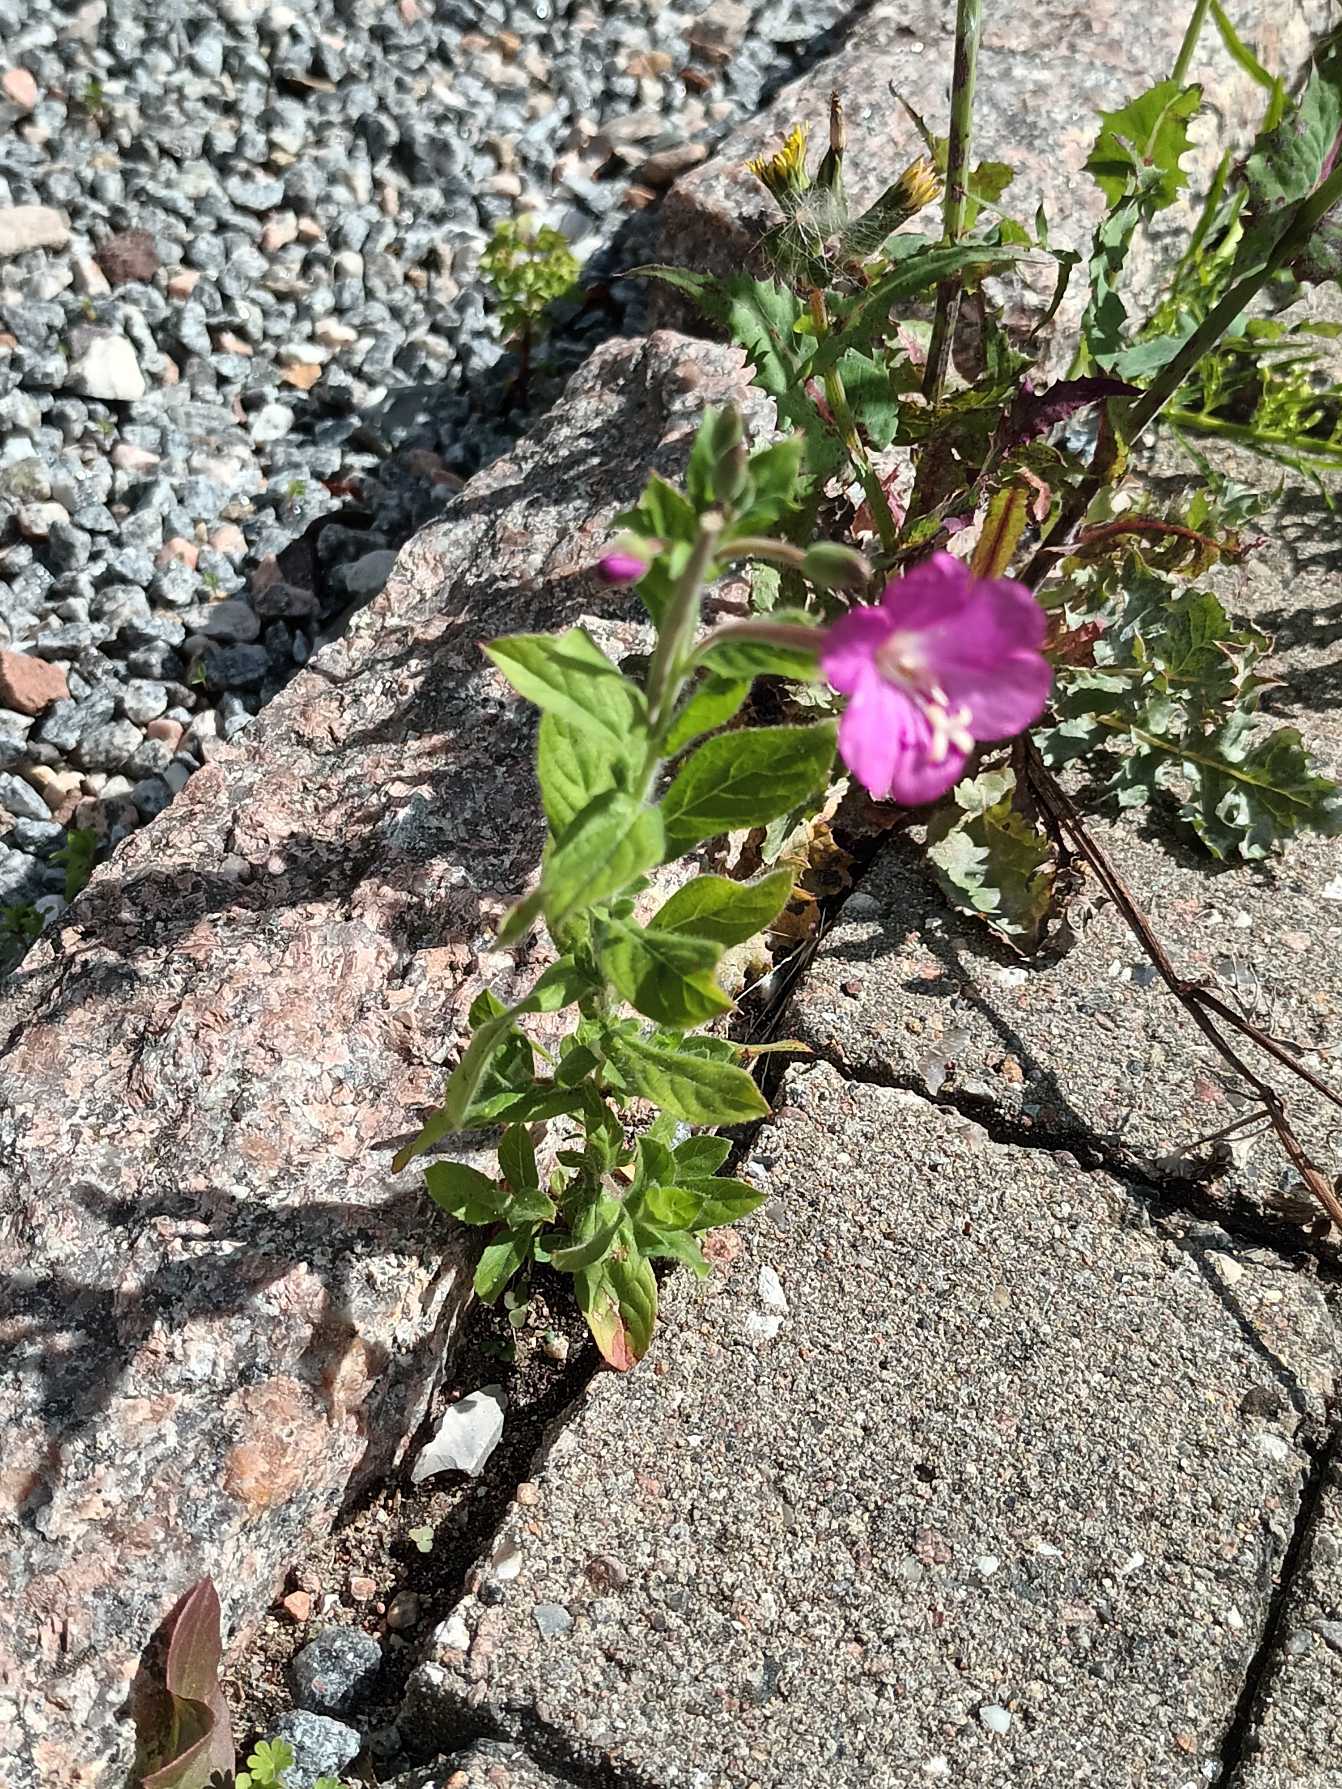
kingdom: Plantae
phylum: Tracheophyta
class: Magnoliopsida
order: Myrtales
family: Onagraceae
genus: Epilobium
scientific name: Epilobium hirsutum
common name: Lådden dueurt
